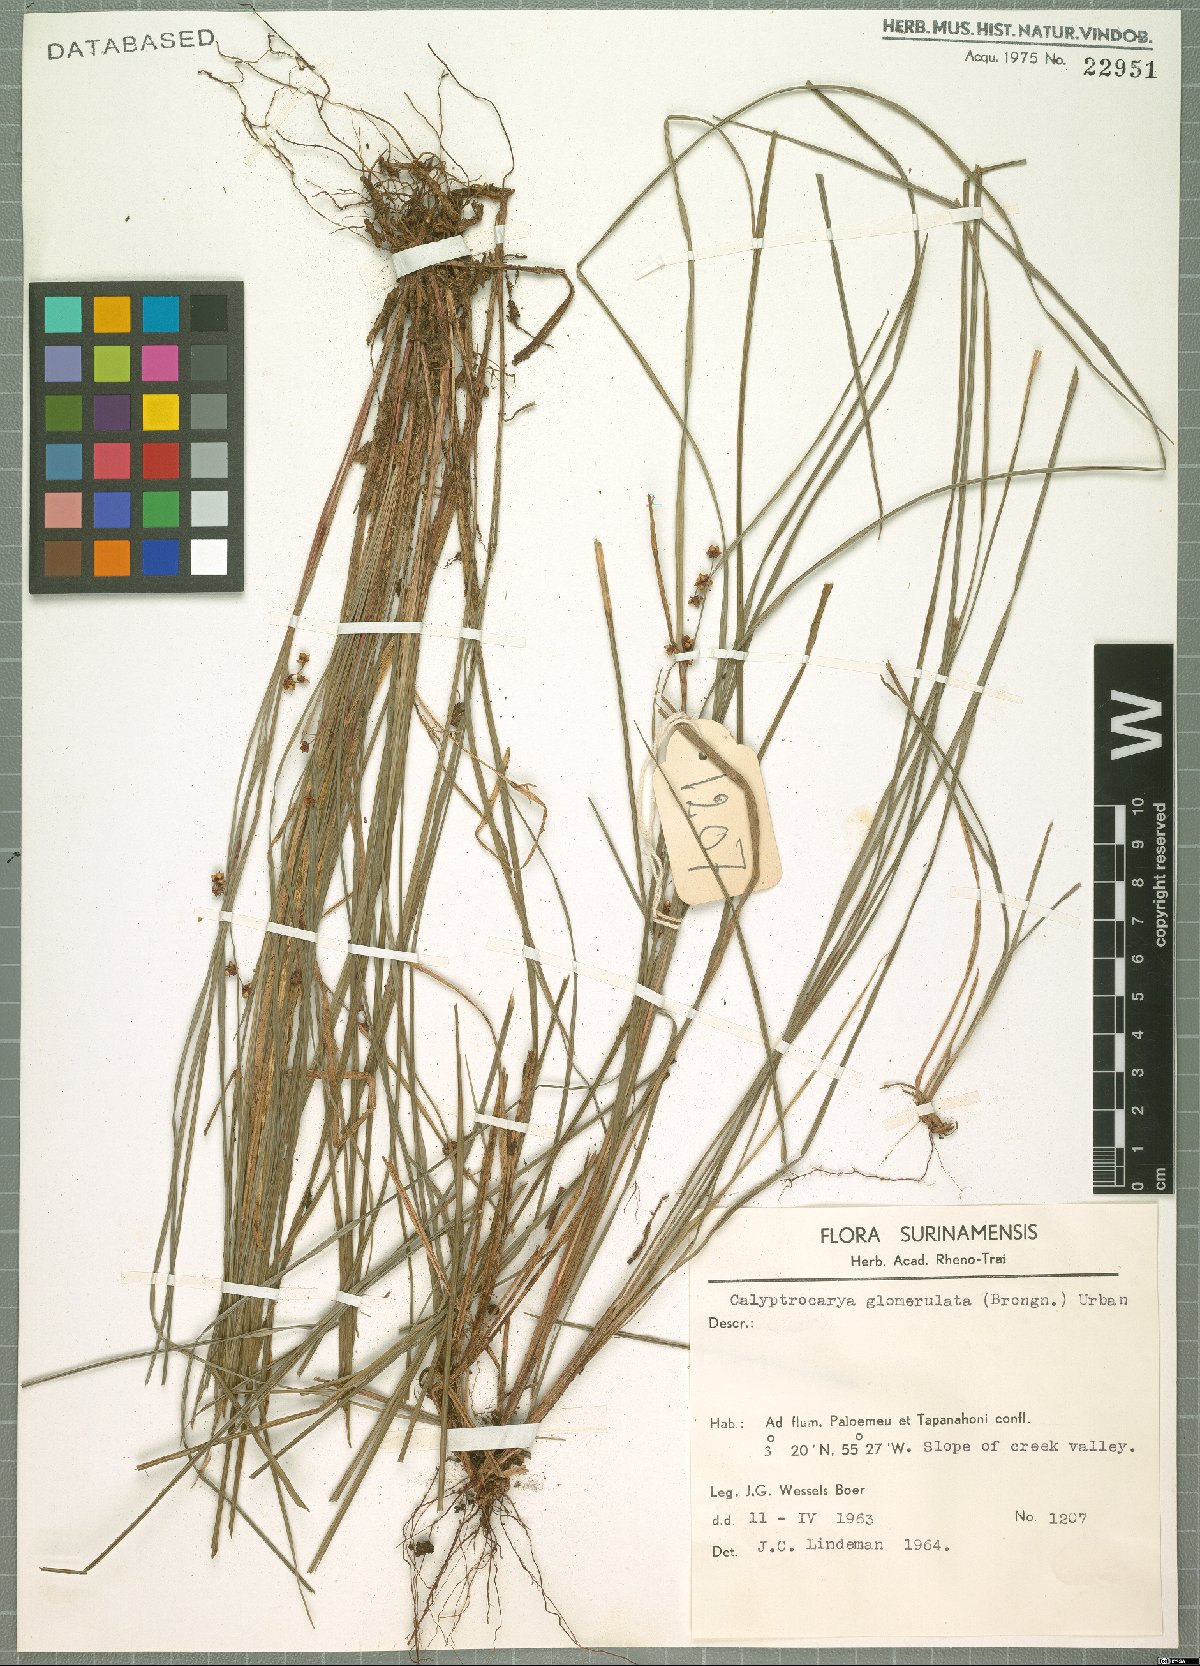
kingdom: Plantae
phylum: Tracheophyta
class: Liliopsida
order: Poales
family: Cyperaceae
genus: Calyptrocarya
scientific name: Calyptrocarya glomerulata
